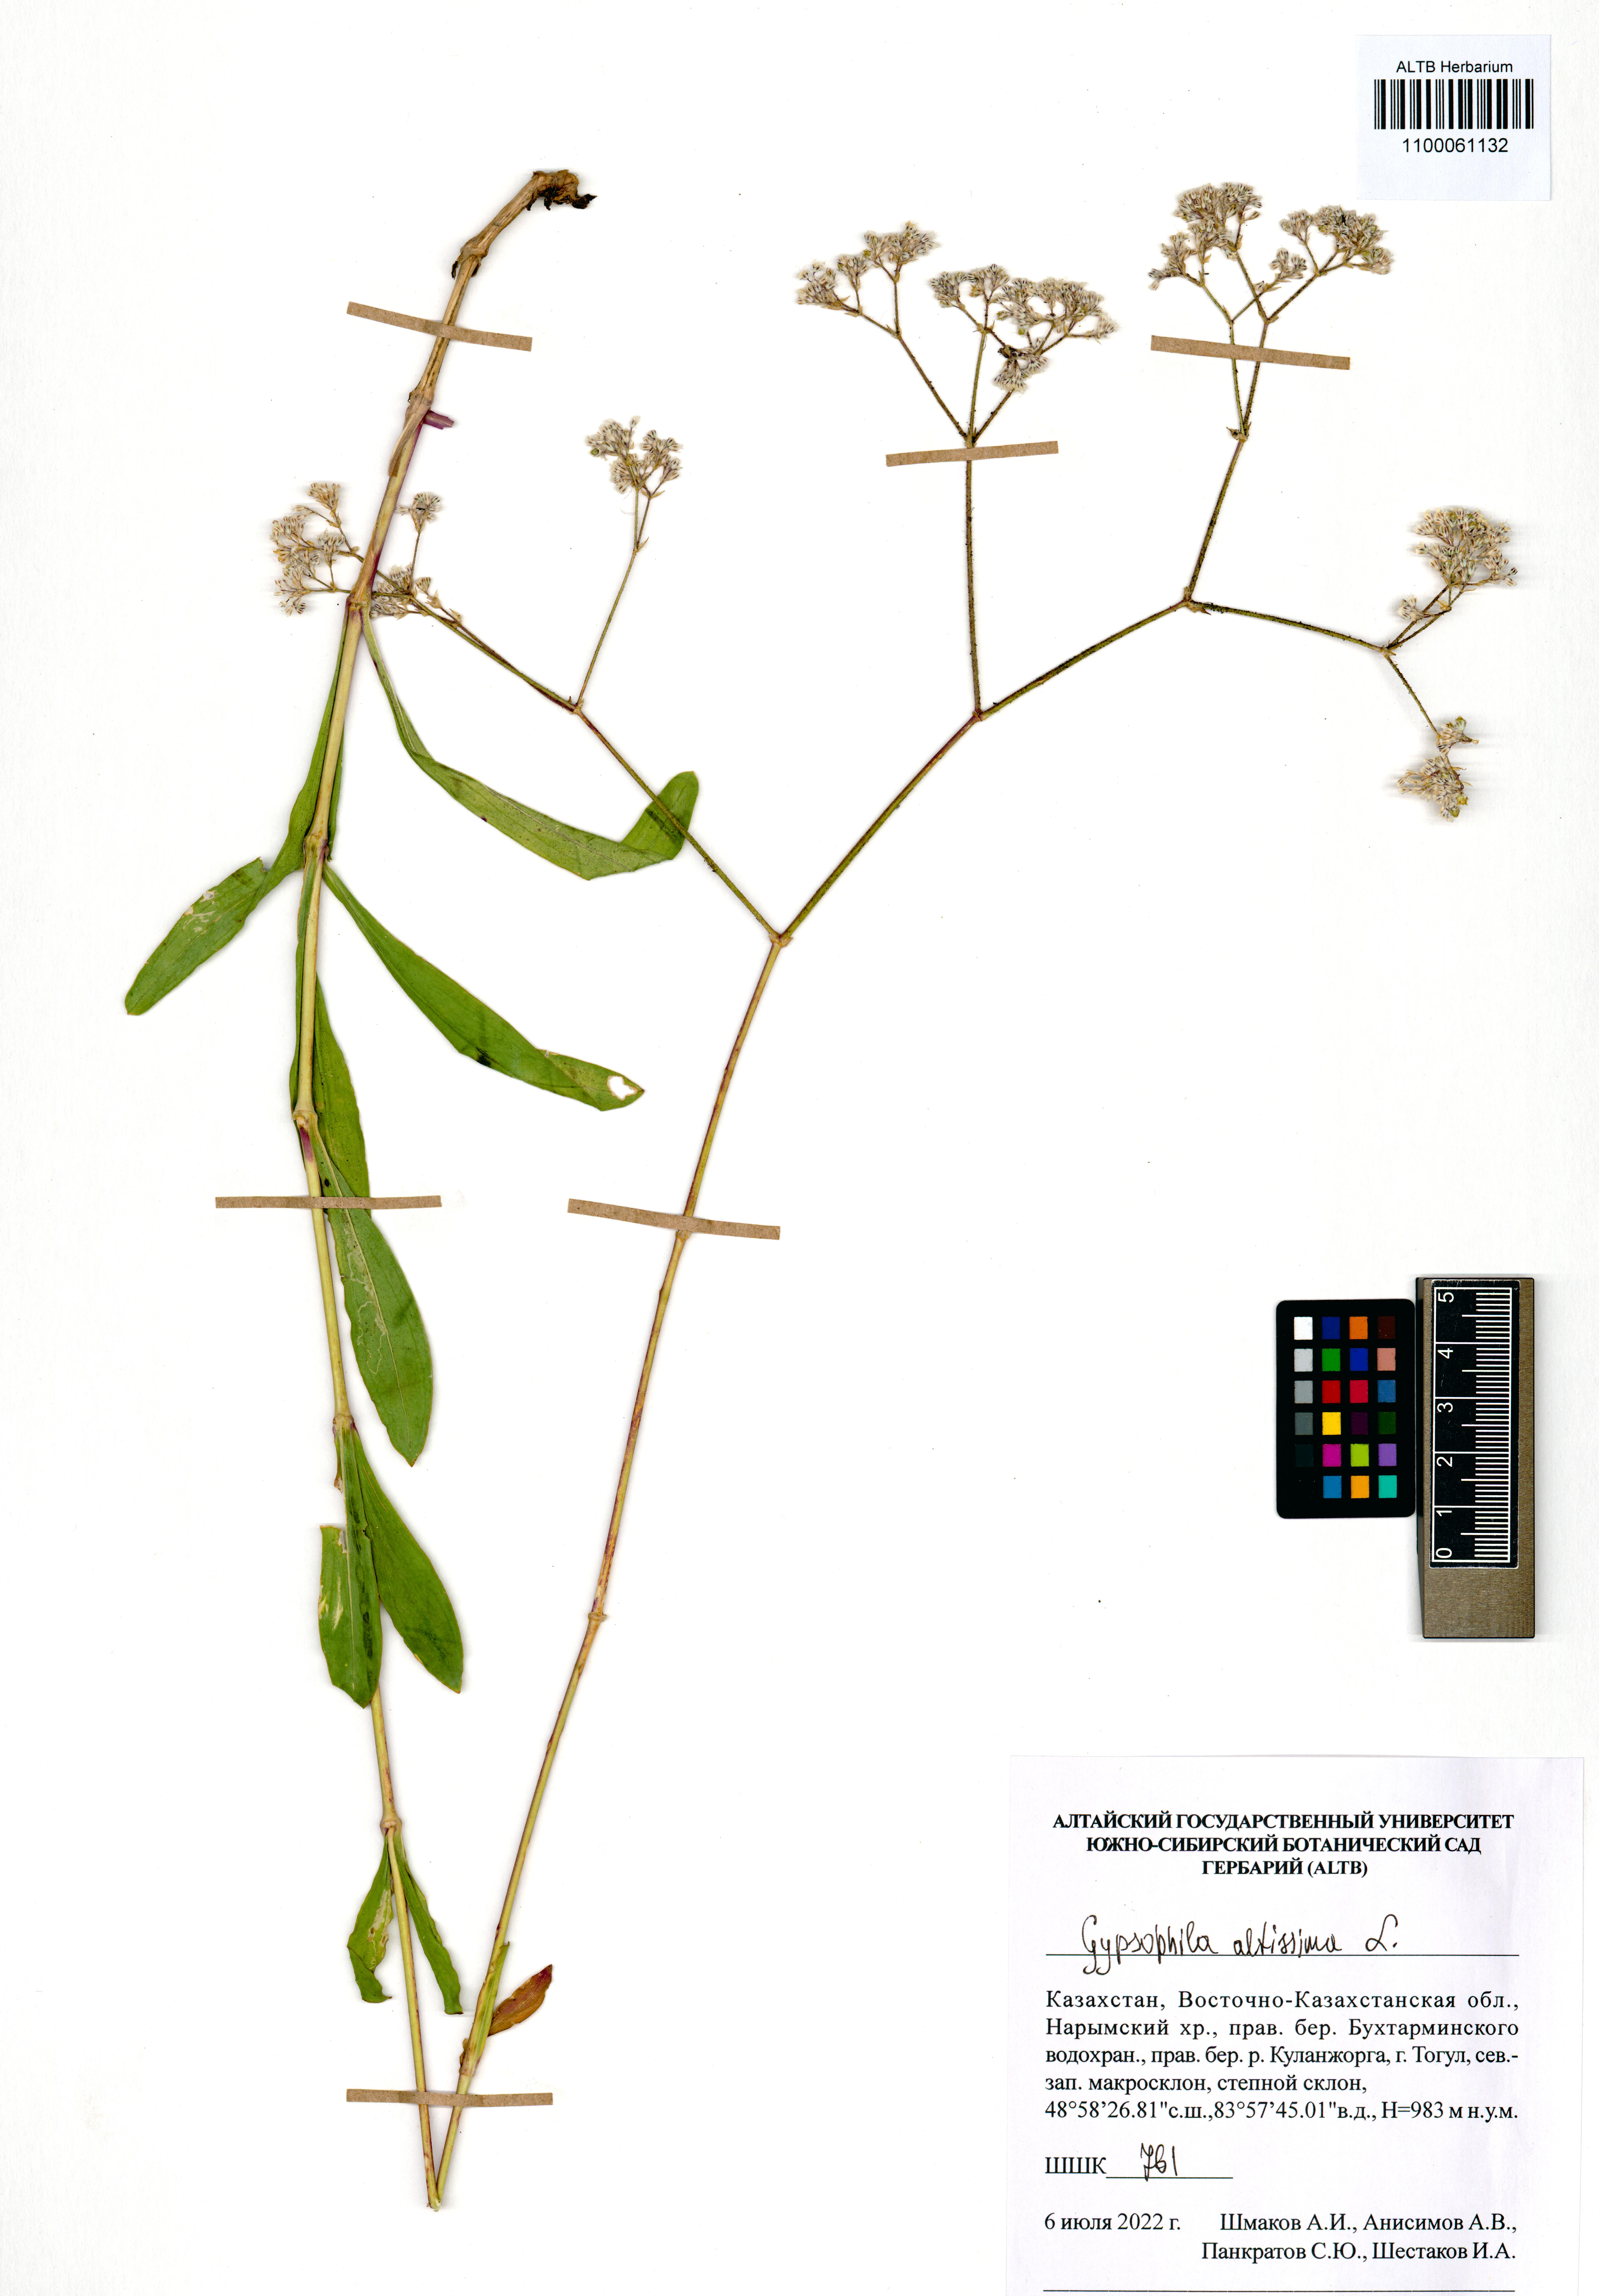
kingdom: Plantae
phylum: Tracheophyta
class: Magnoliopsida
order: Caryophyllales
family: Caryophyllaceae
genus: Gypsophila
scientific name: Gypsophila altissima
